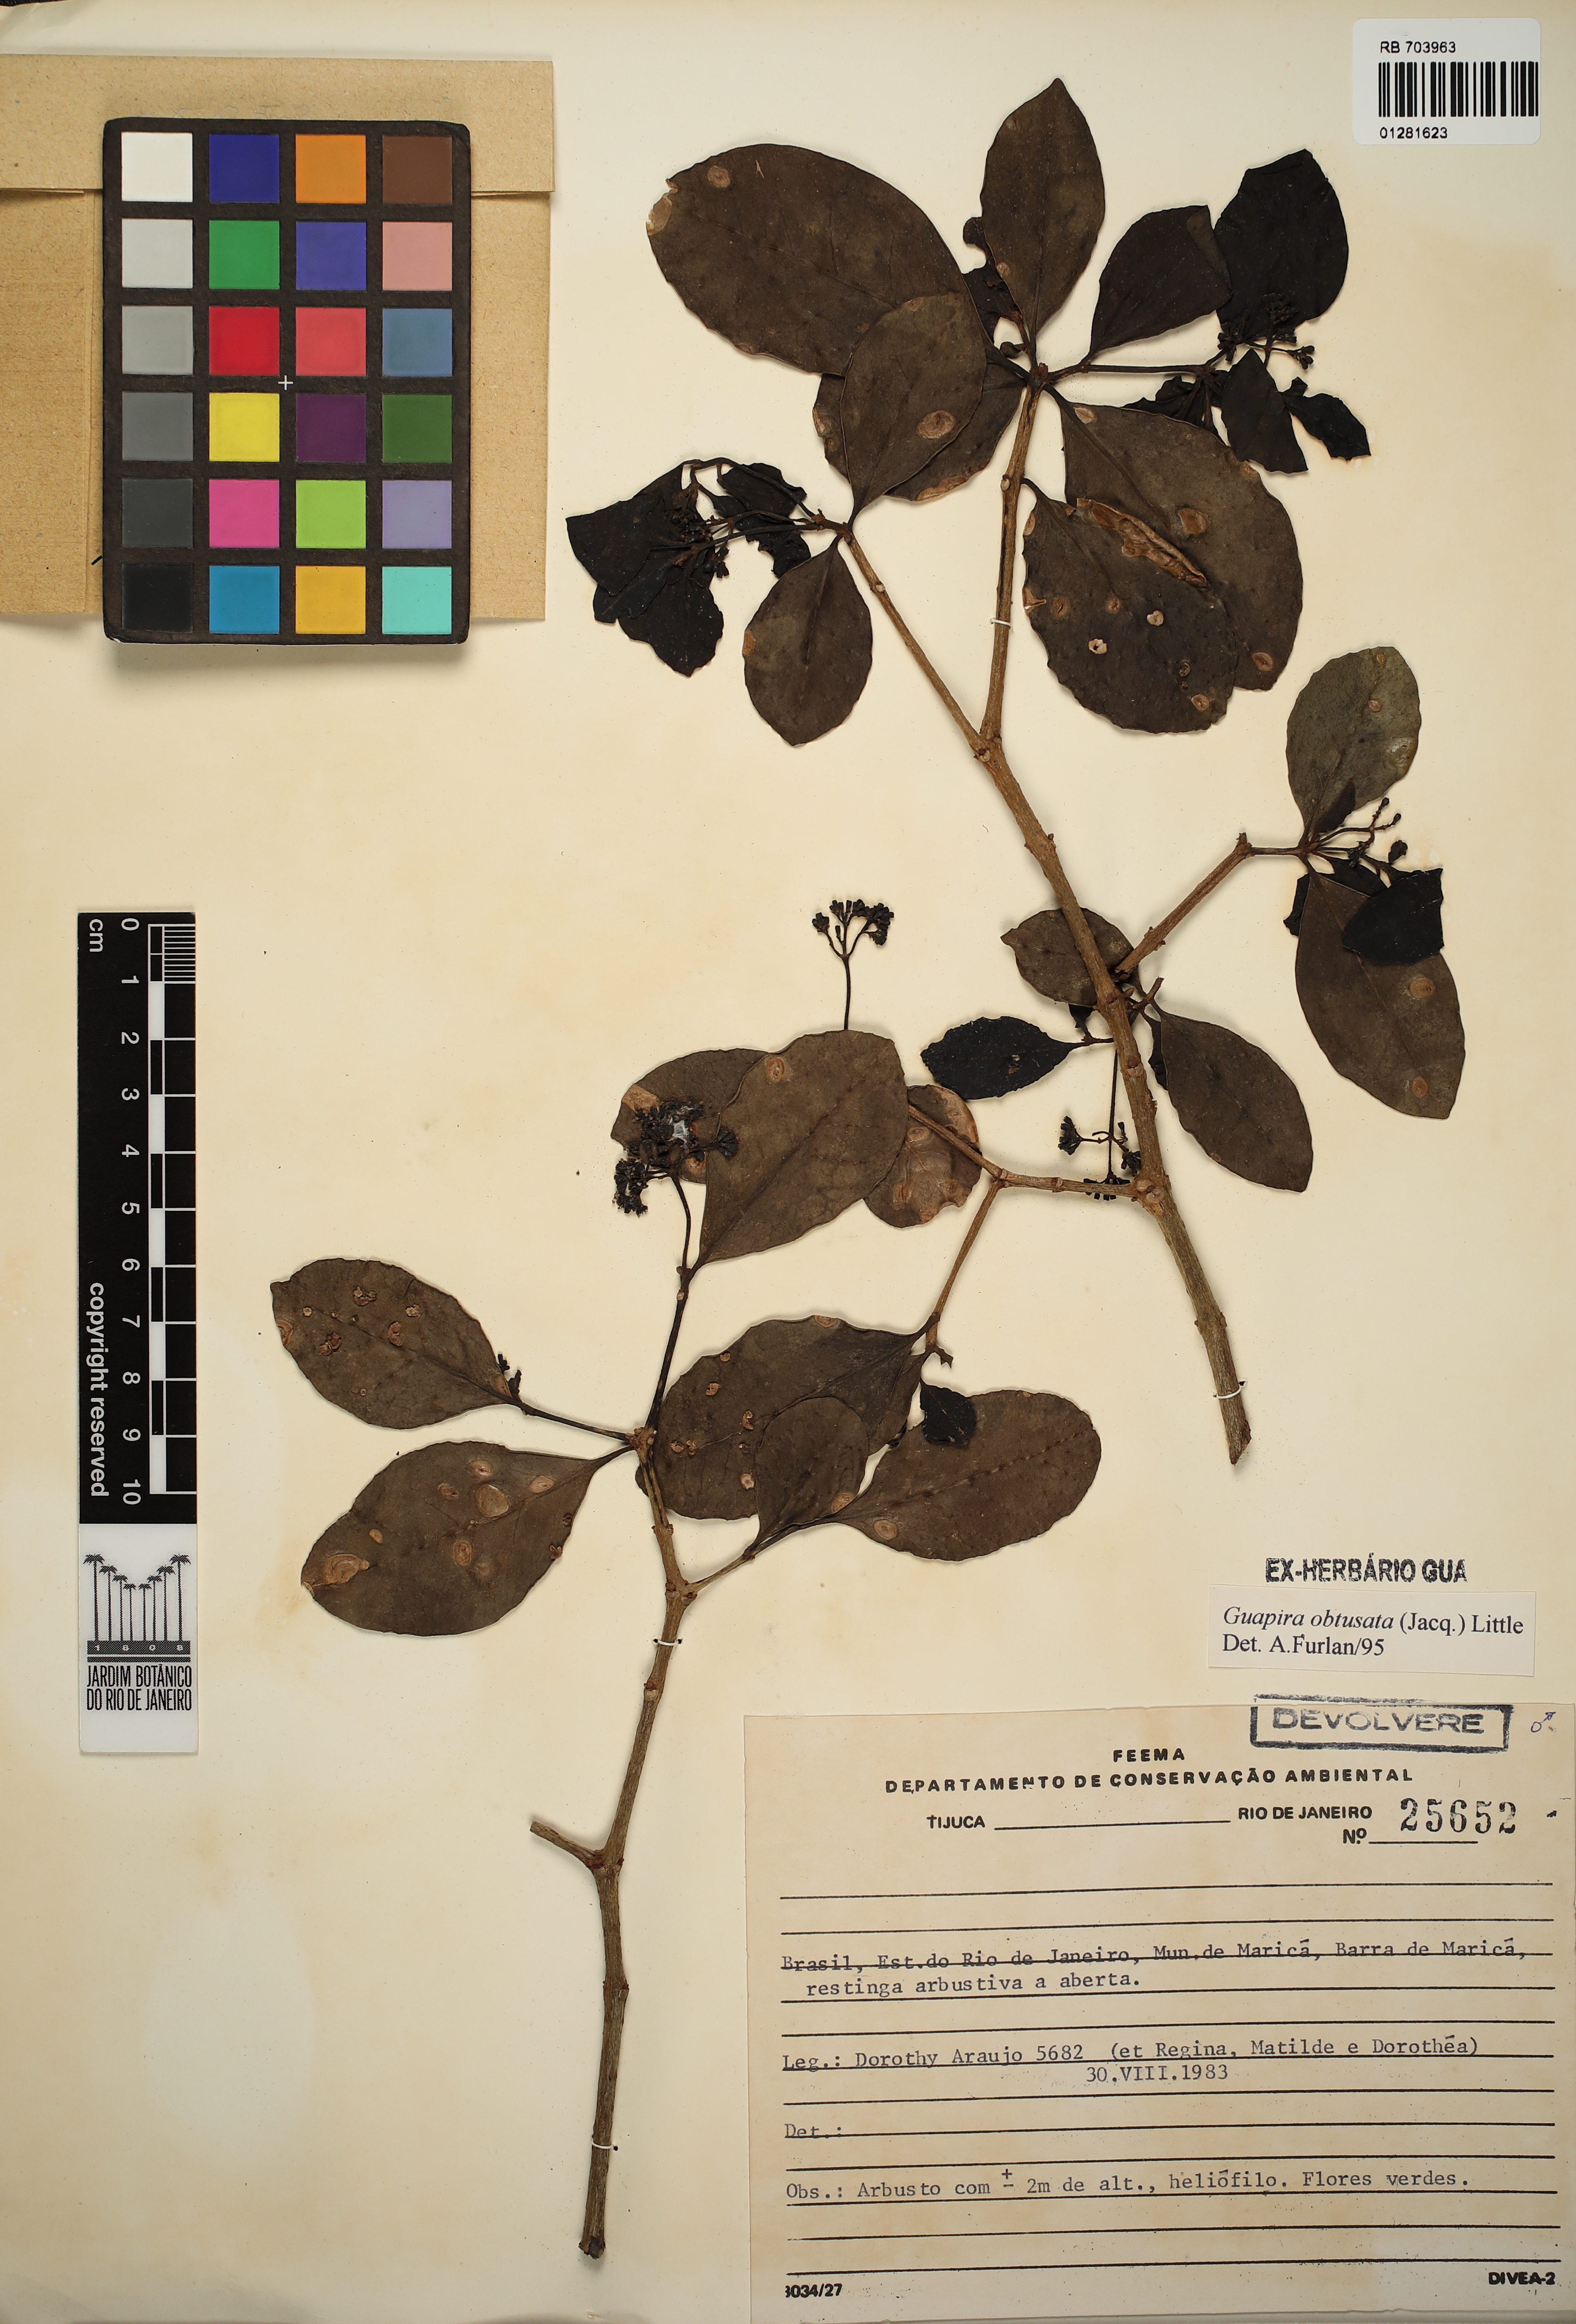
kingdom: Plantae
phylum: Tracheophyta
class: Magnoliopsida
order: Caryophyllales
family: Nyctaginaceae
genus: Guapira
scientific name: Guapira obtusata
